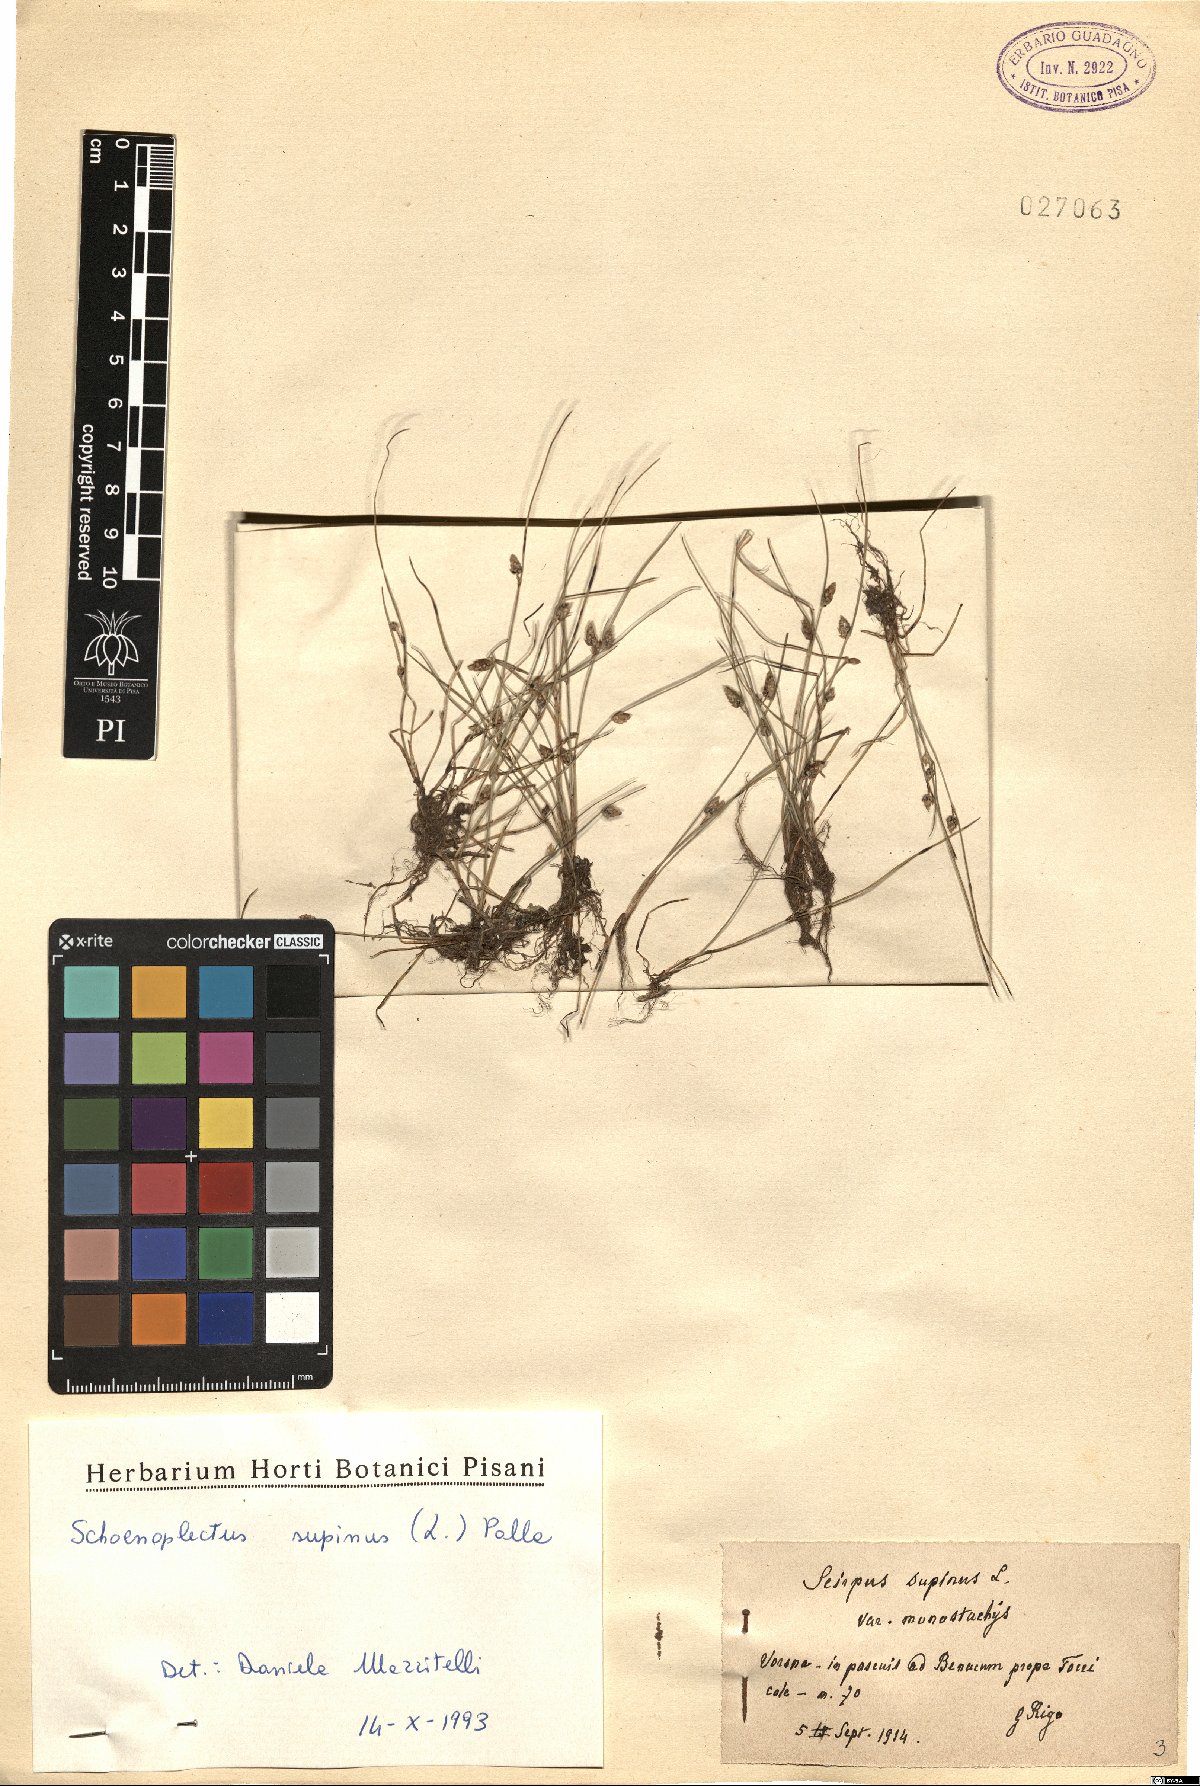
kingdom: Plantae
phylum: Tracheophyta
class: Liliopsida
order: Poales
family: Cyperaceae
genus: Schoenoplectiella
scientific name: Schoenoplectiella supina
